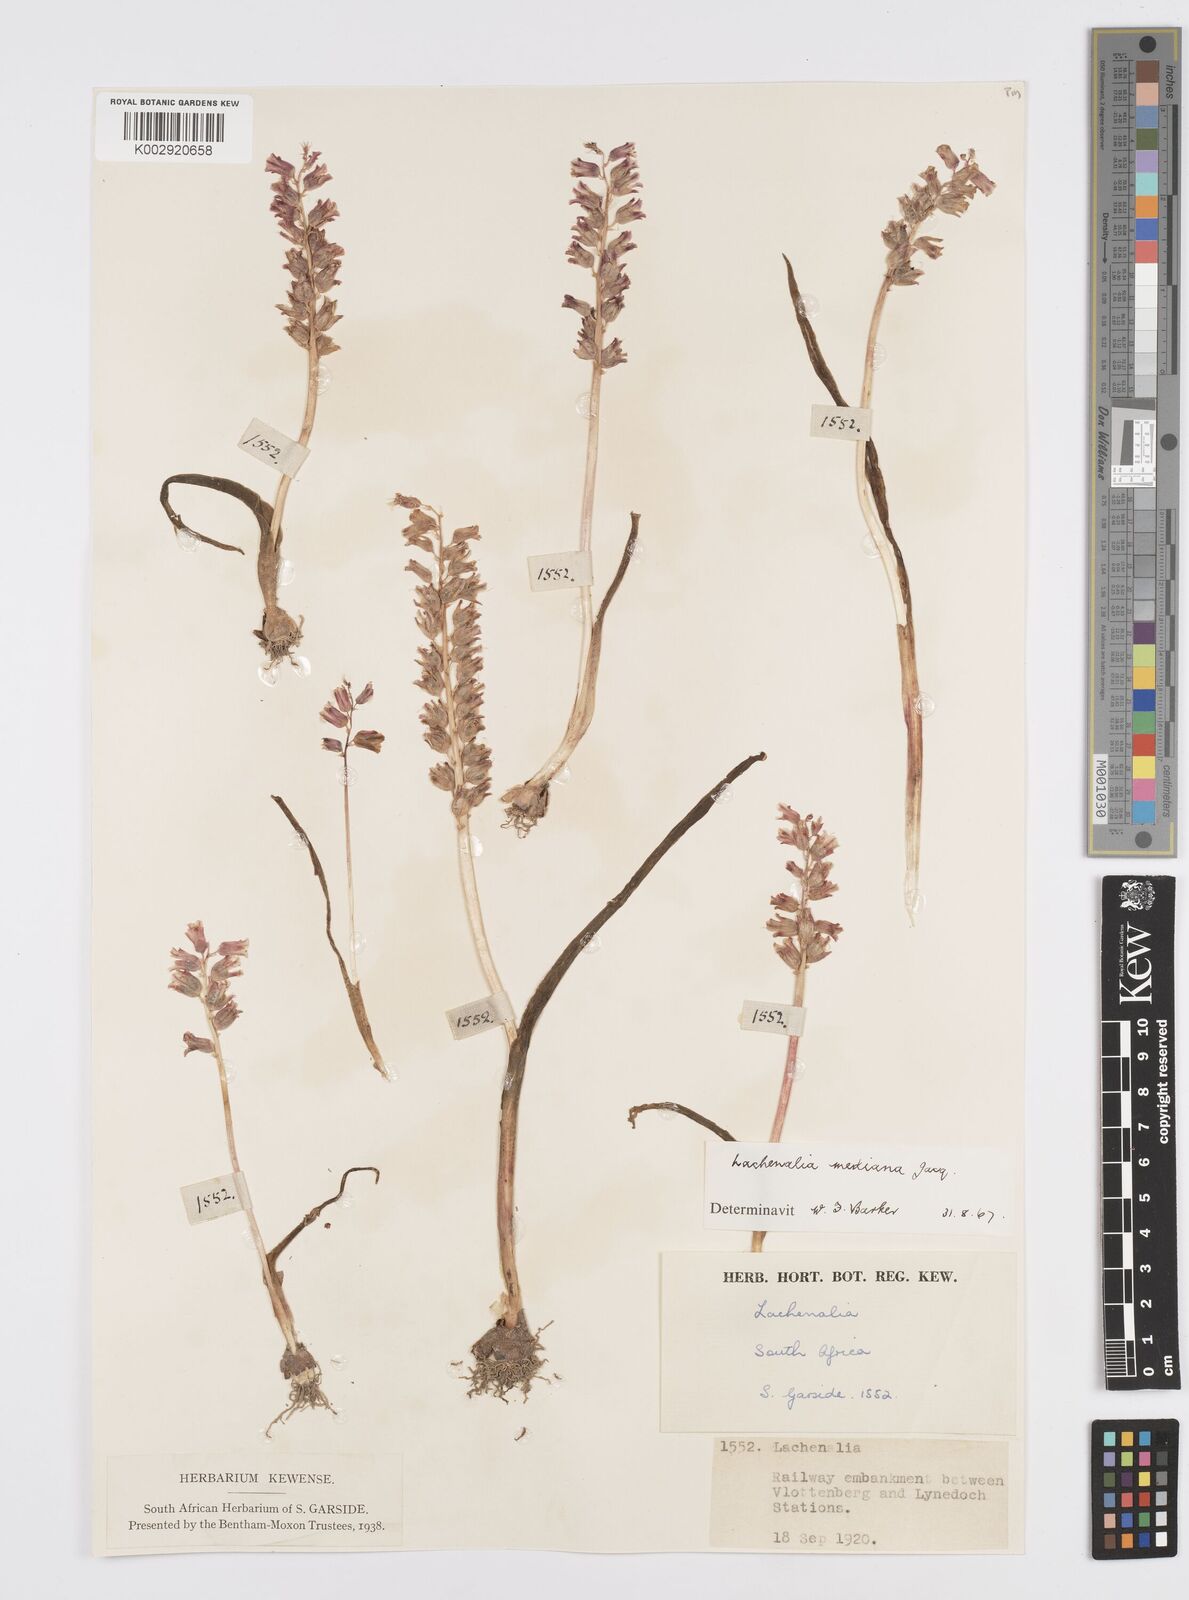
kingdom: Plantae
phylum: Tracheophyta
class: Liliopsida
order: Asparagales
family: Asparagaceae
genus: Lachenalia
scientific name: Lachenalia mediana
